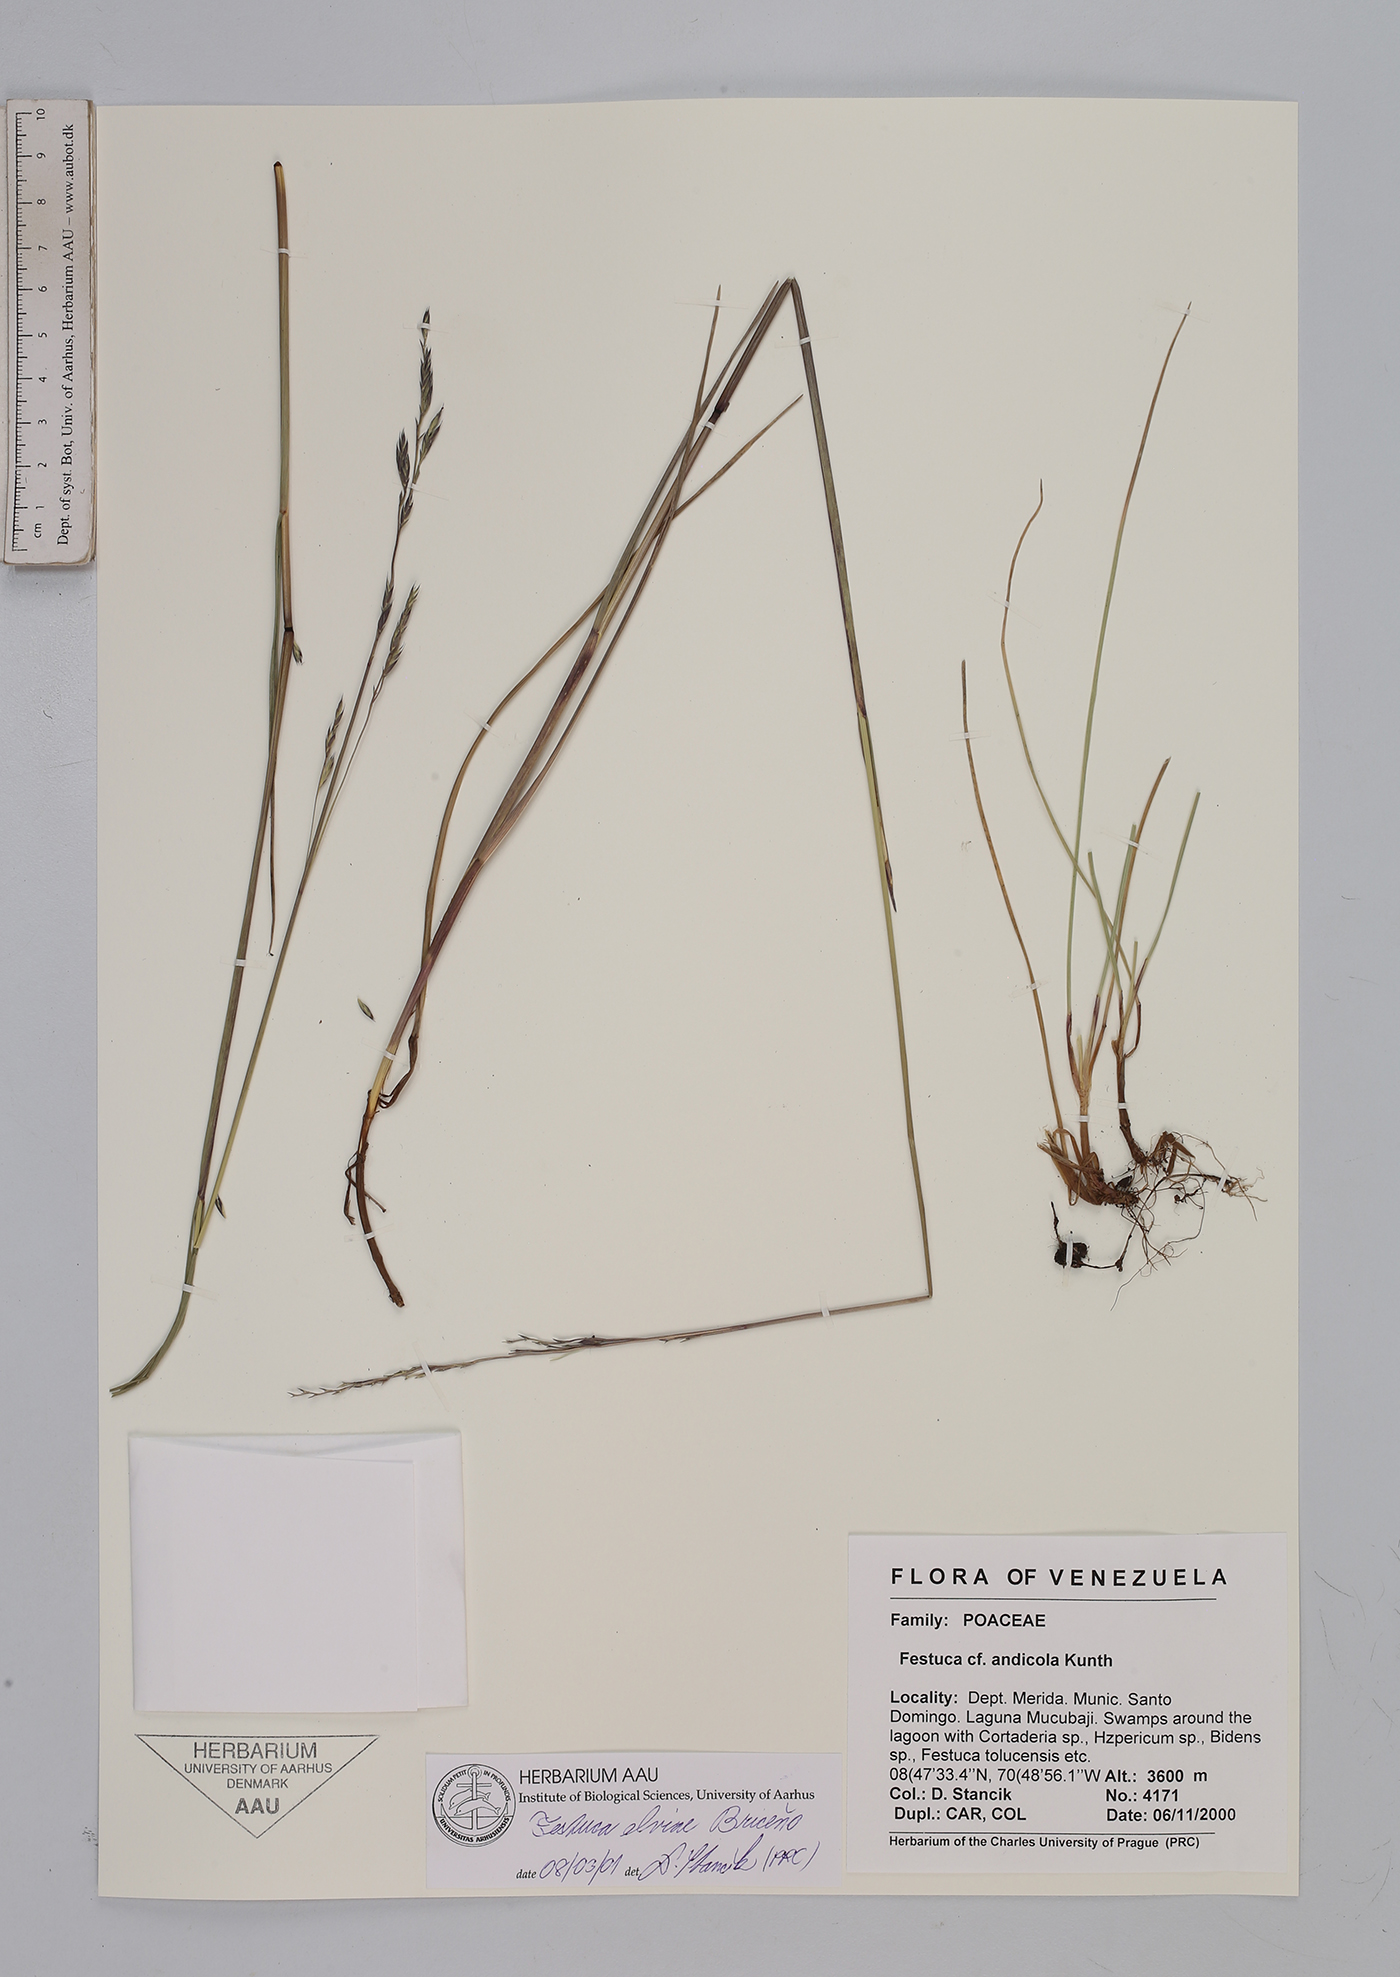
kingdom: Plantae
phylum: Tracheophyta
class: Liliopsida
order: Poales
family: Poaceae
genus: Festuca
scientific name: Festuca elviae
